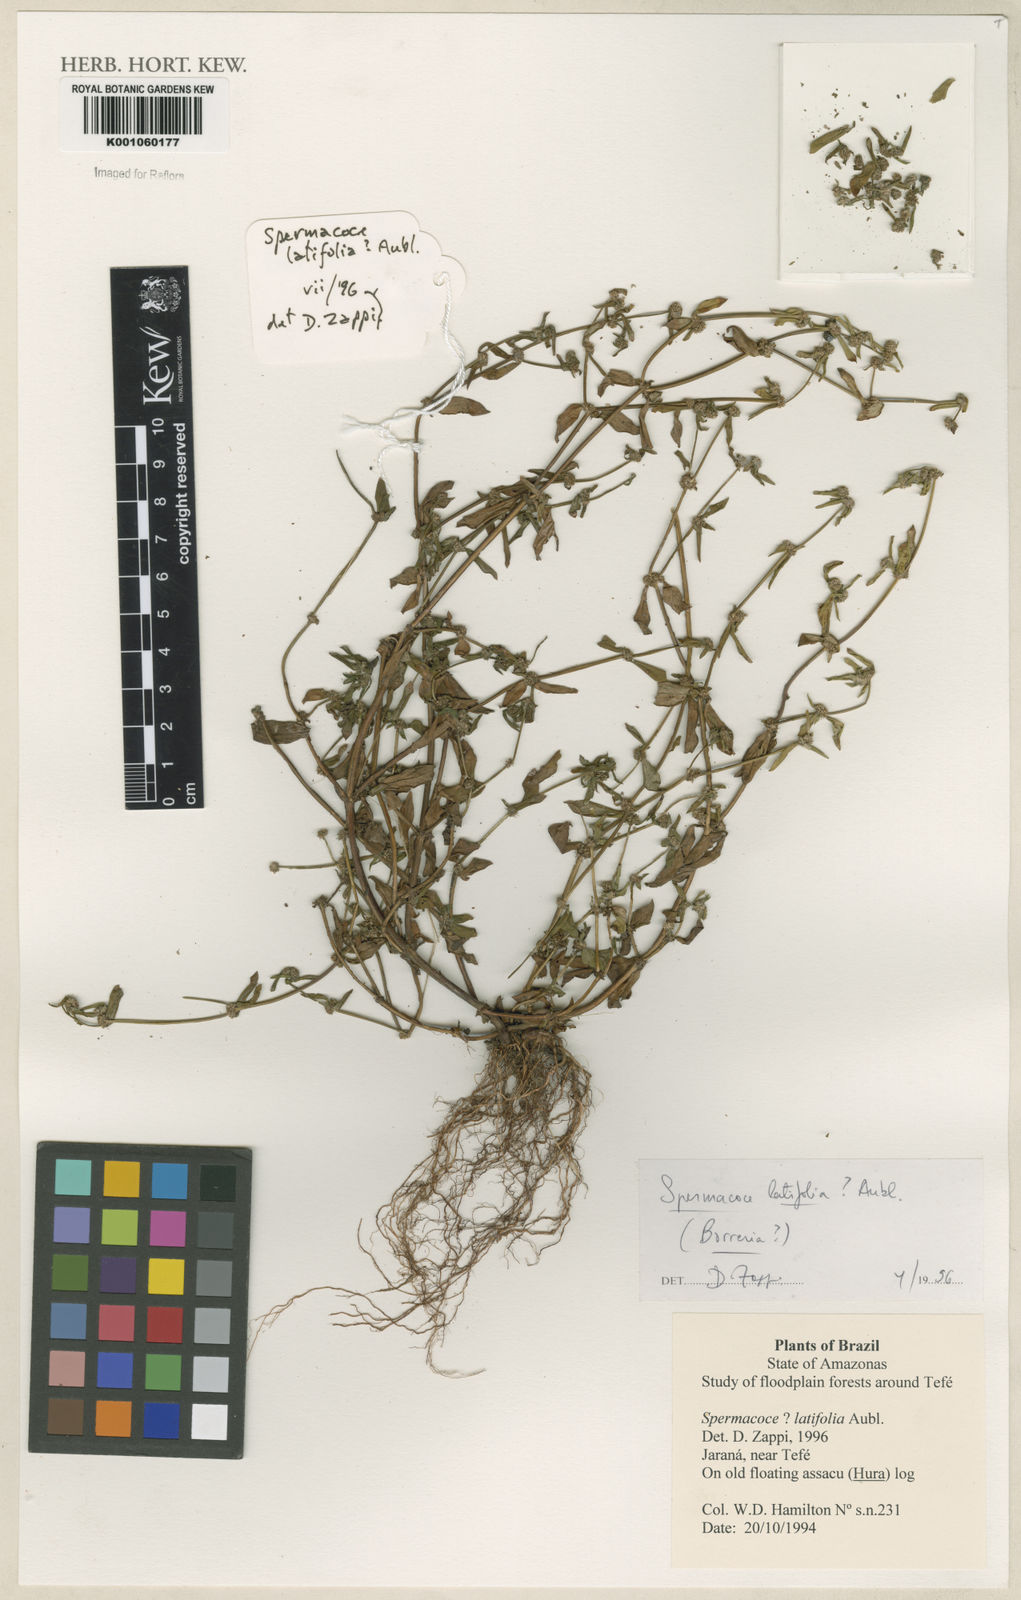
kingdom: Plantae
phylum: Tracheophyta
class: Magnoliopsida
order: Gentianales
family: Rubiaceae
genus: Spermacoce
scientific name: Spermacoce
